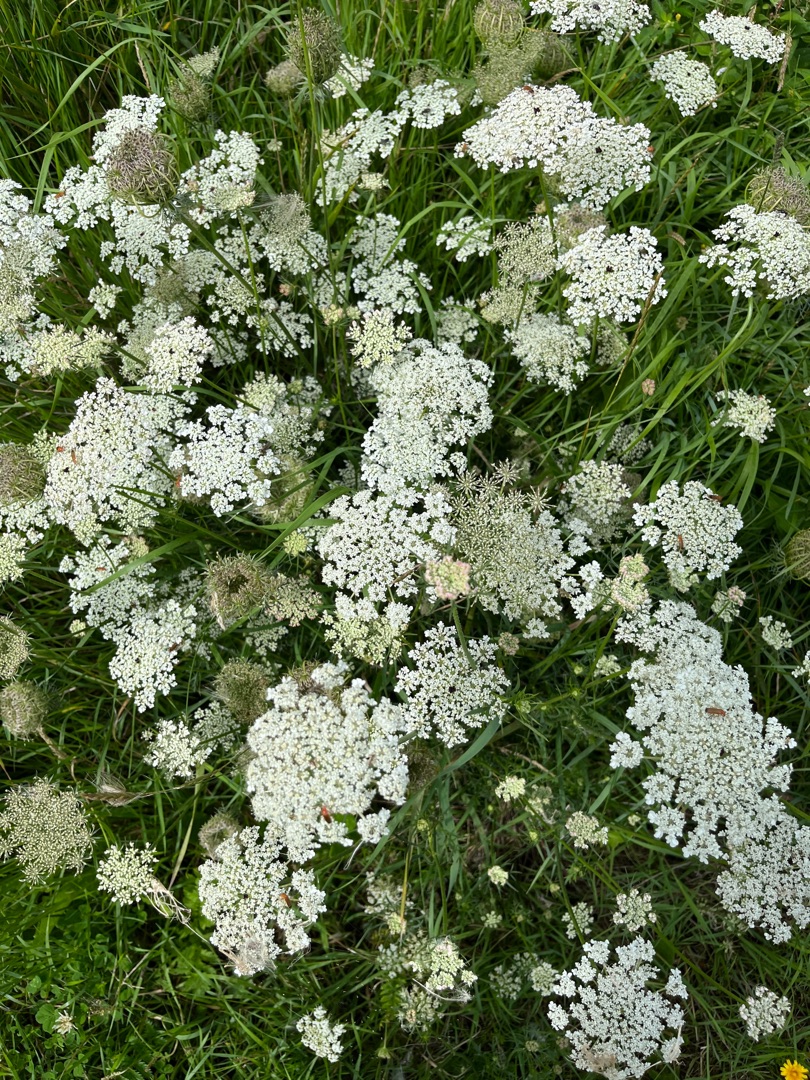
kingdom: Plantae
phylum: Tracheophyta
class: Magnoliopsida
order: Apiales
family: Apiaceae
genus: Daucus
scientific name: Daucus carota
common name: Gulerod
